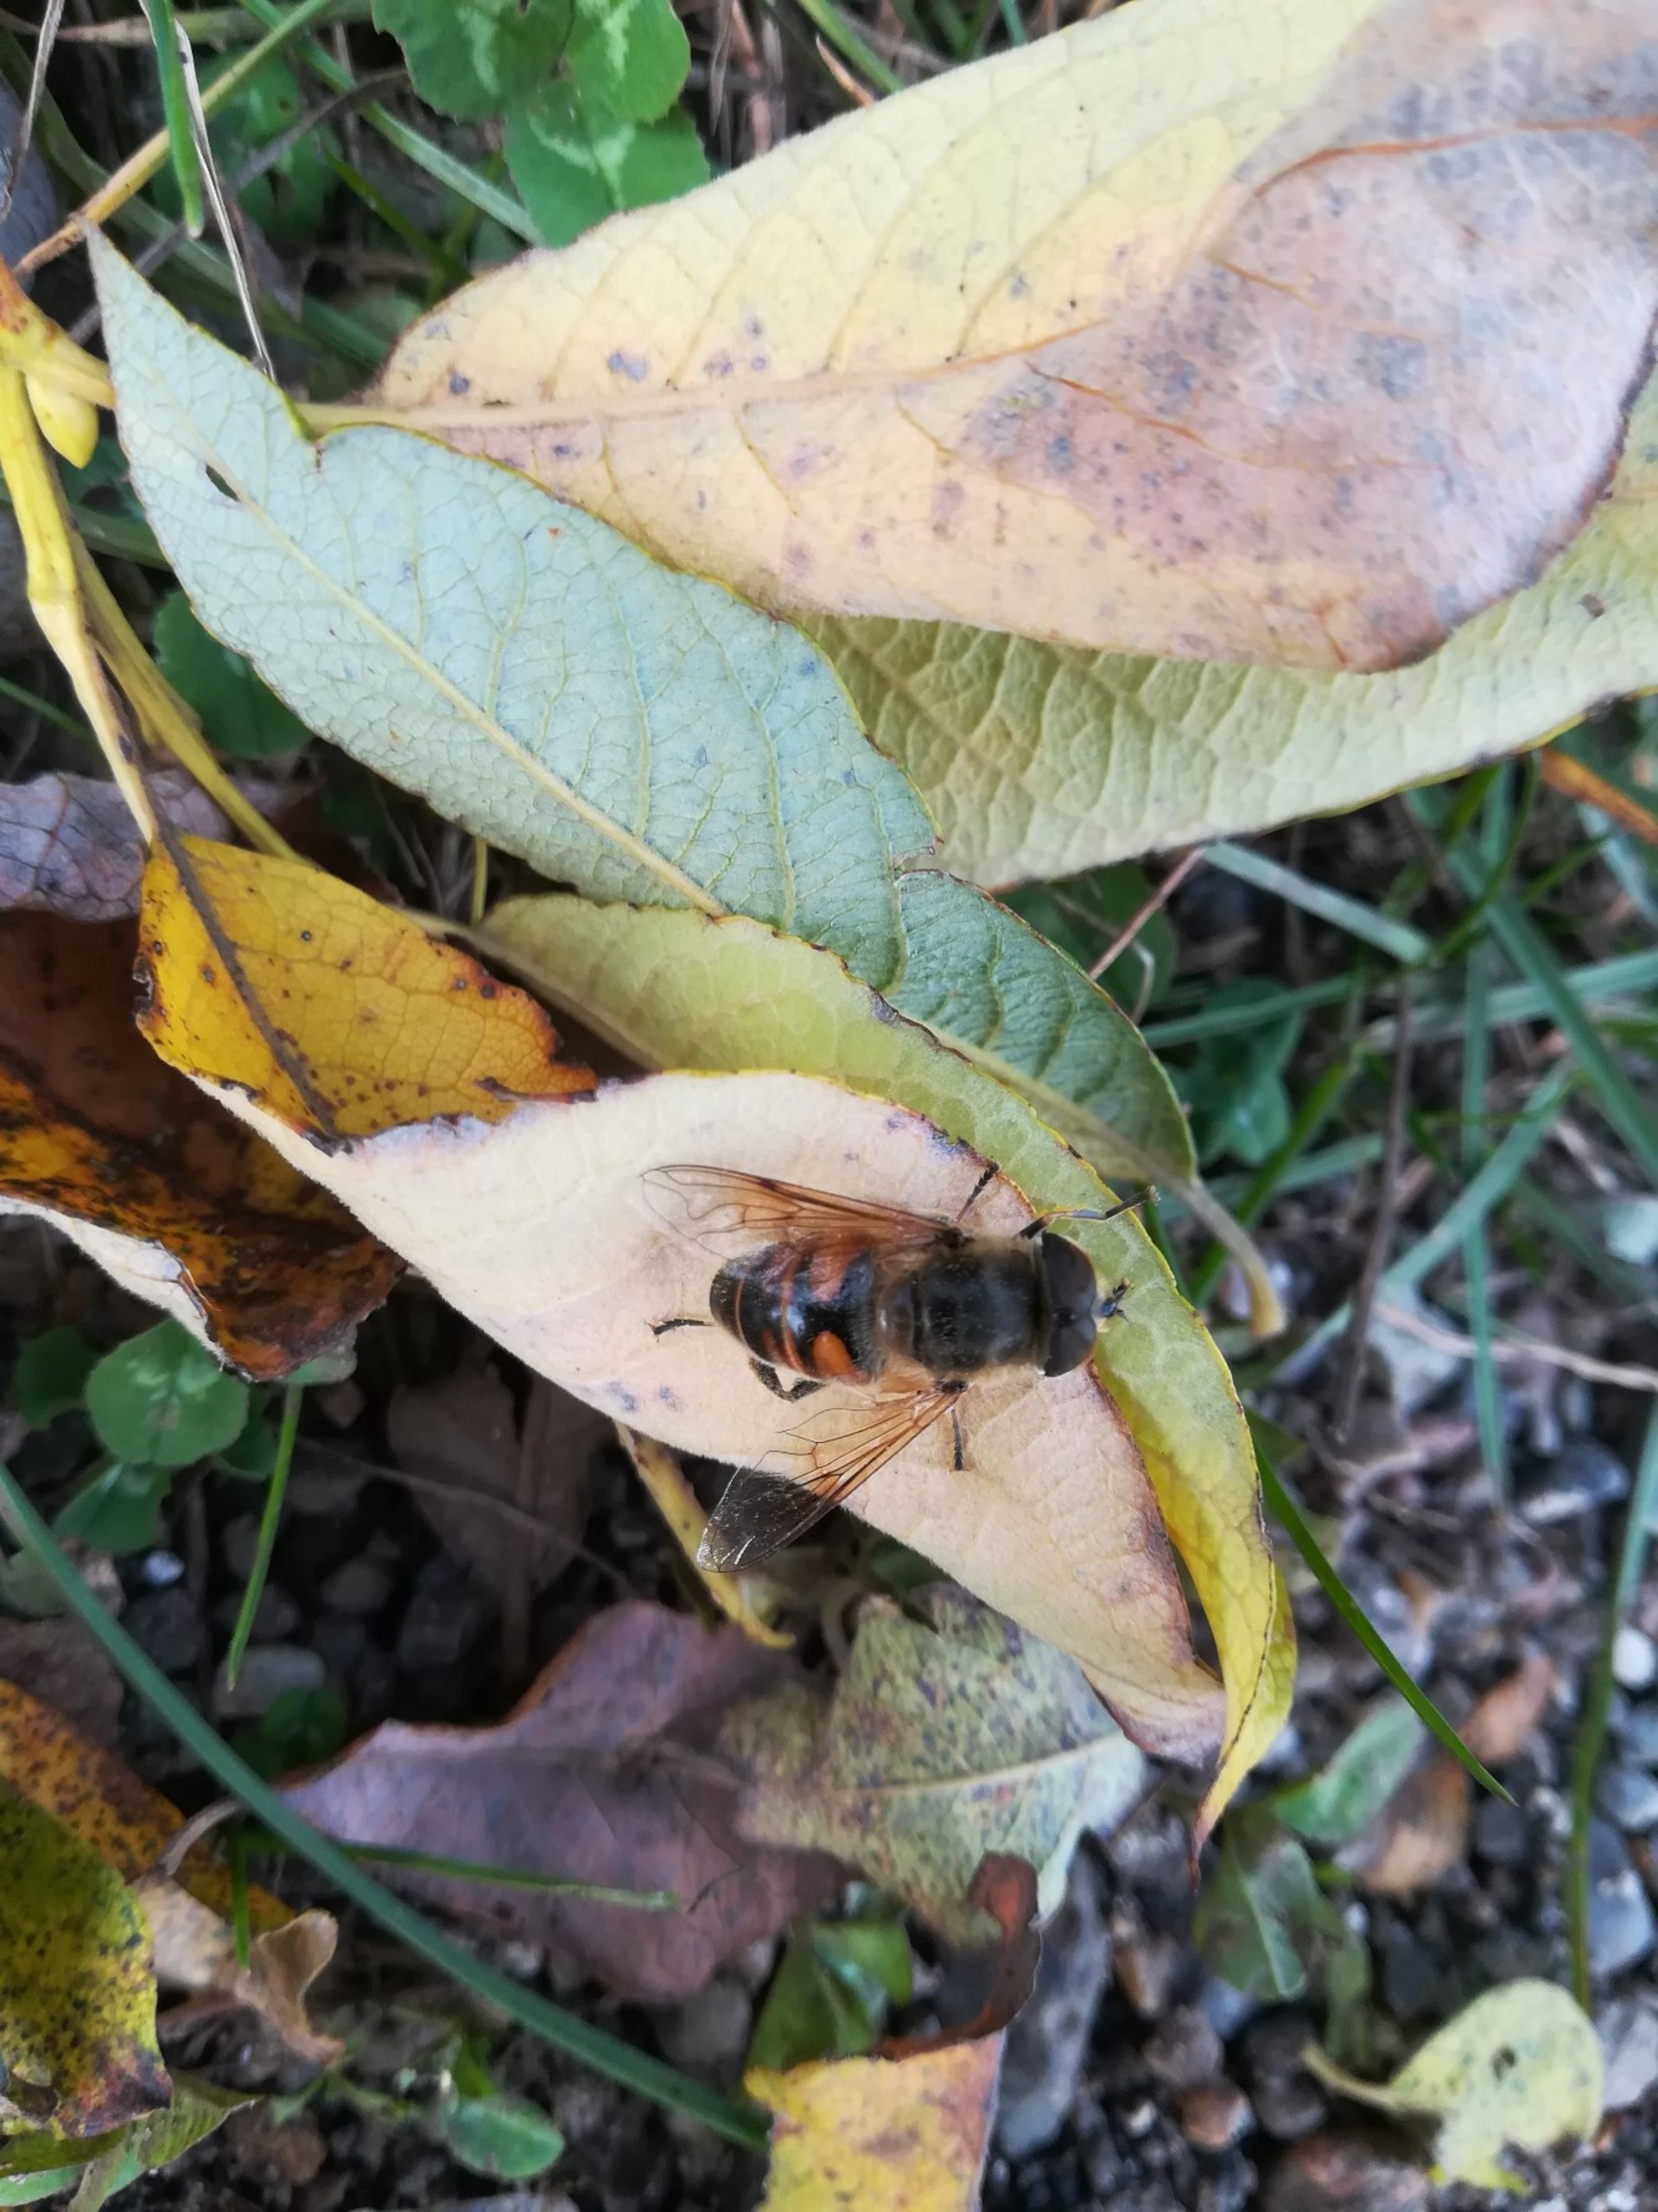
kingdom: Animalia
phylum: Arthropoda
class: Insecta
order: Diptera
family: Syrphidae
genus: Eristalis
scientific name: Eristalis tenax
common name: Droneflue
